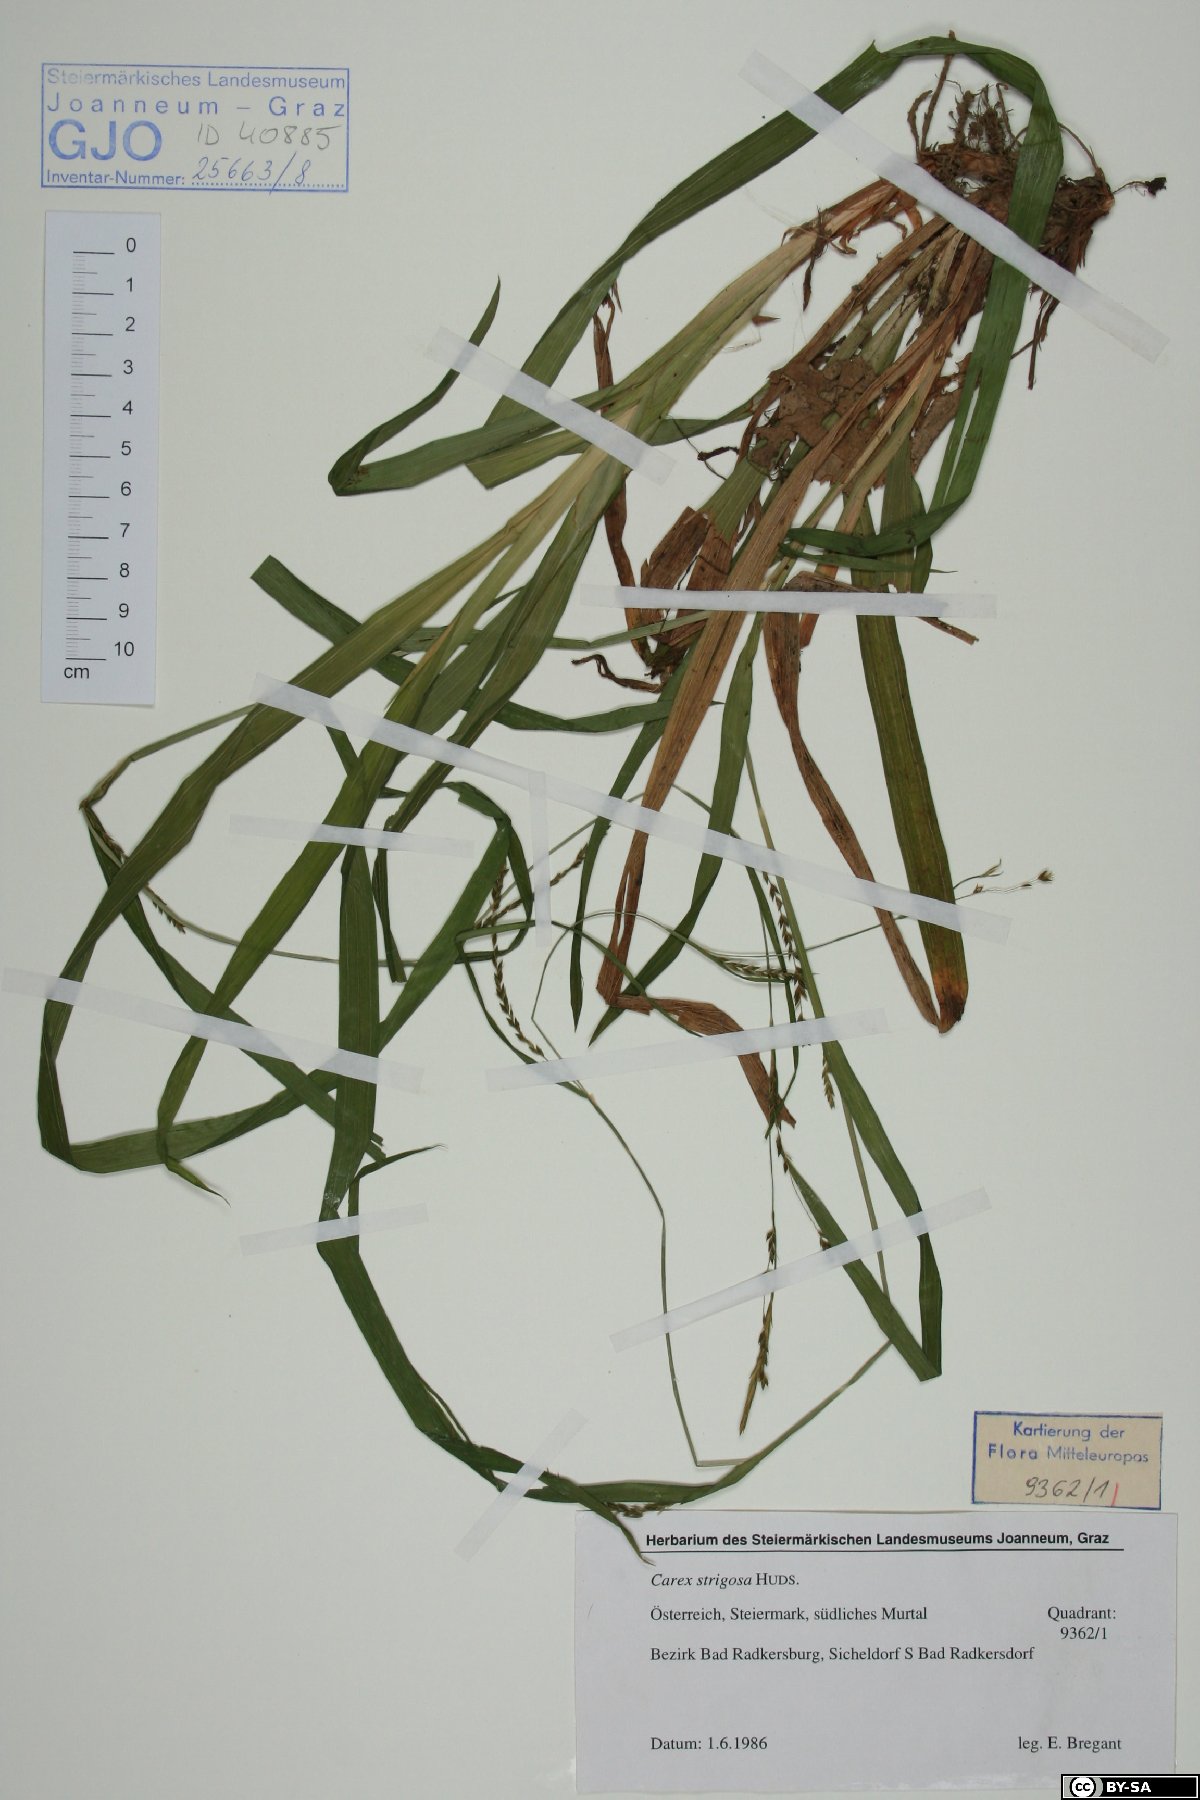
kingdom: Plantae
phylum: Tracheophyta
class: Liliopsida
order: Poales
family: Cyperaceae
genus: Carex
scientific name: Carex strigosa
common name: Thin-spiked wood-sedge
